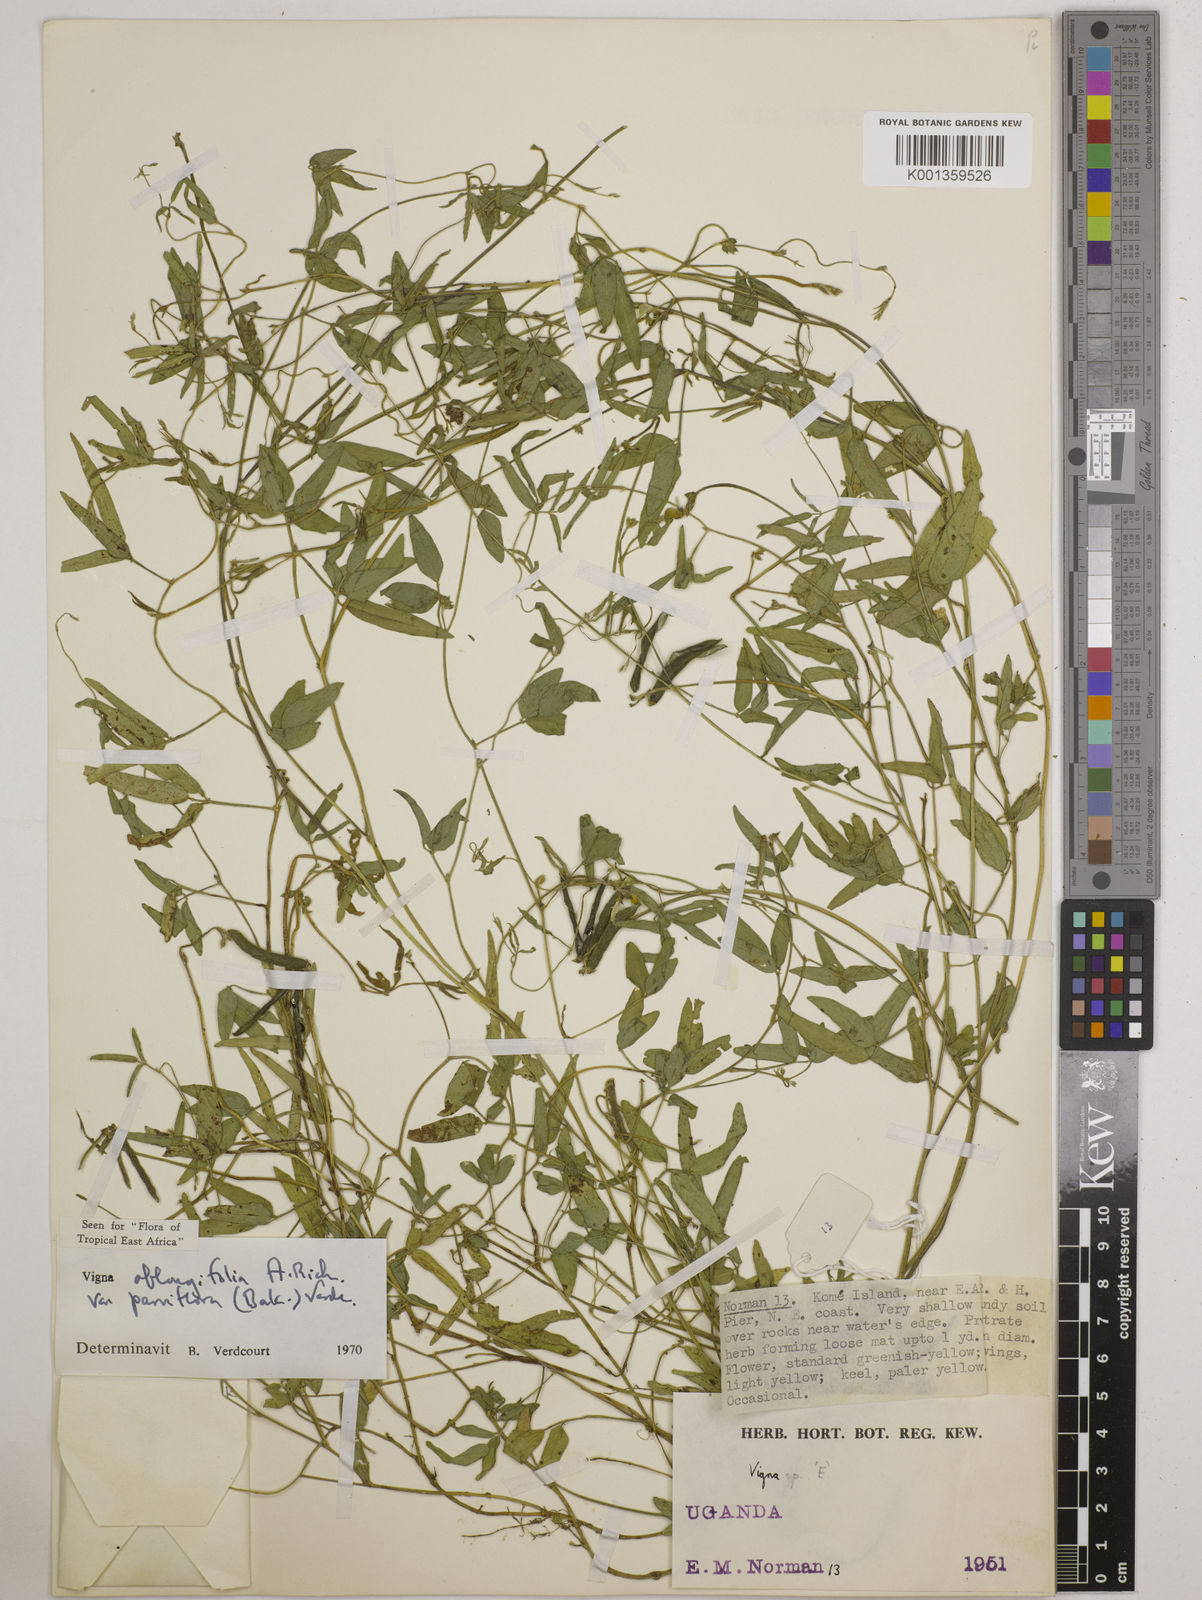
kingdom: Plantae
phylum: Tracheophyta
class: Magnoliopsida
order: Fabales
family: Fabaceae
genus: Vigna
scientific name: Vigna
